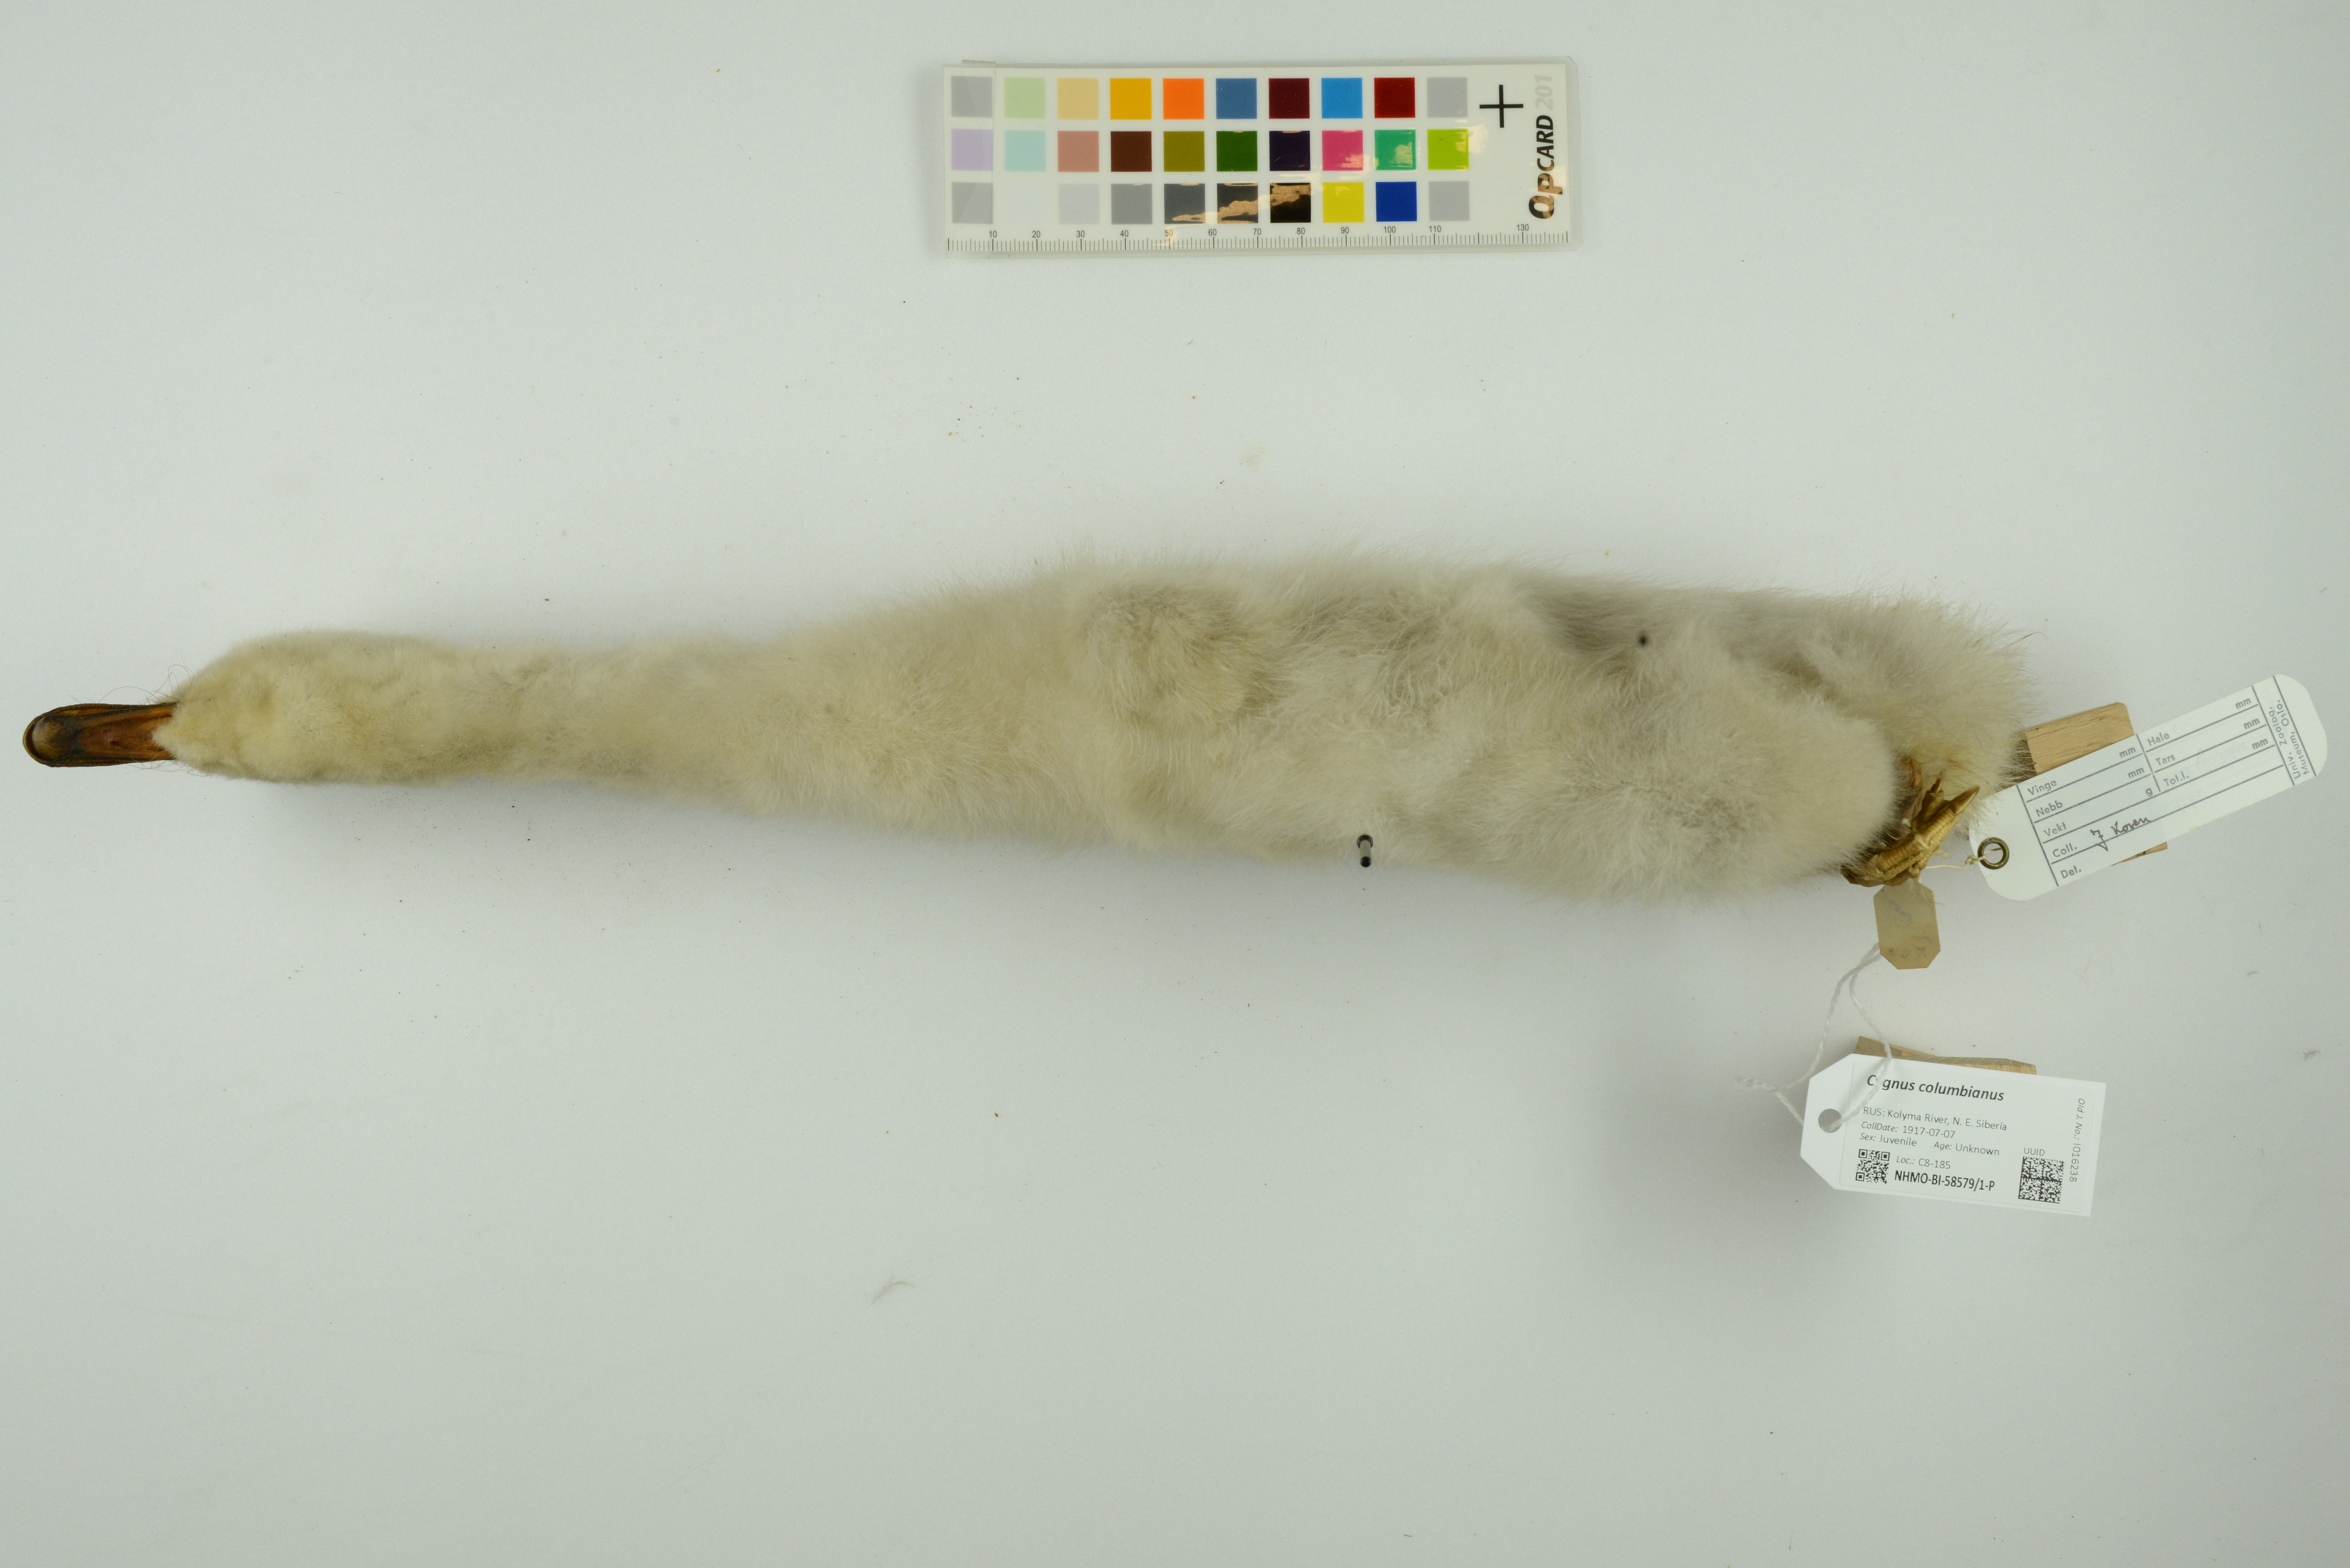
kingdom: Animalia
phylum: Chordata
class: Aves
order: Anseriformes
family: Anatidae
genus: Cygnus
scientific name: Cygnus columbianus
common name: Tundra swan
